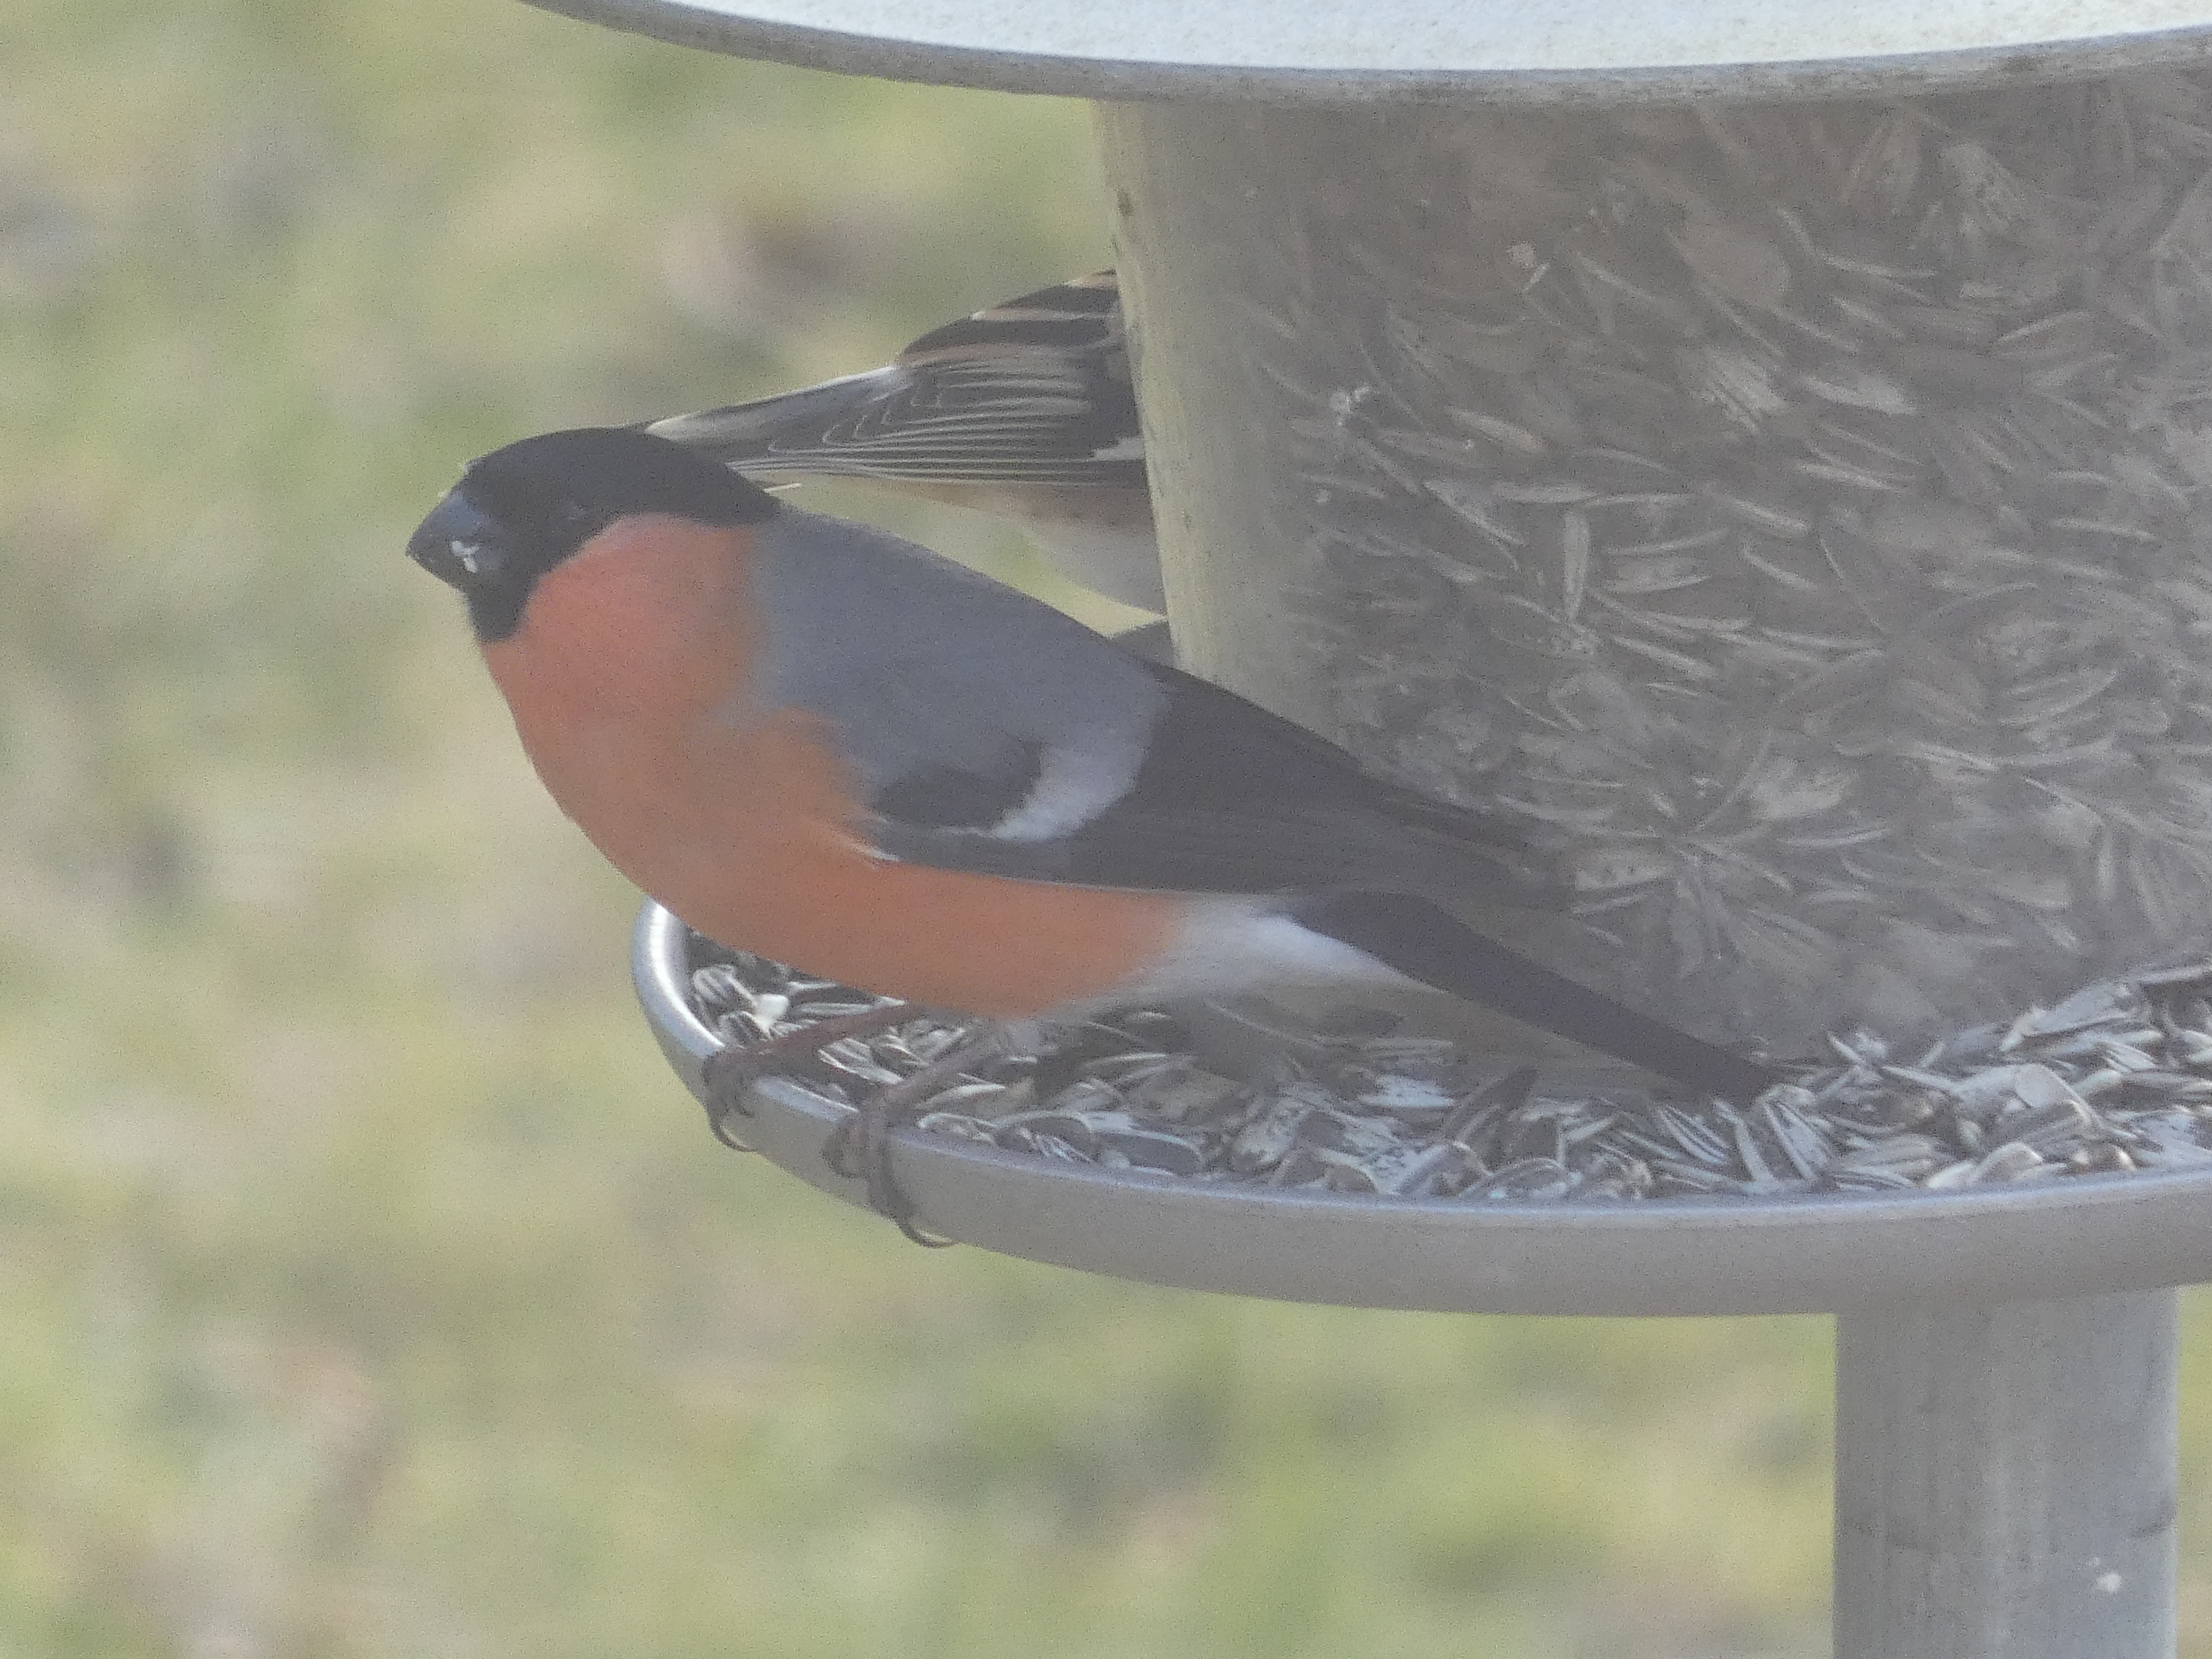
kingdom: Animalia
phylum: Chordata
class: Aves
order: Passeriformes
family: Fringillidae
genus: Pyrrhula
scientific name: Pyrrhula pyrrhula
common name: Dompap
